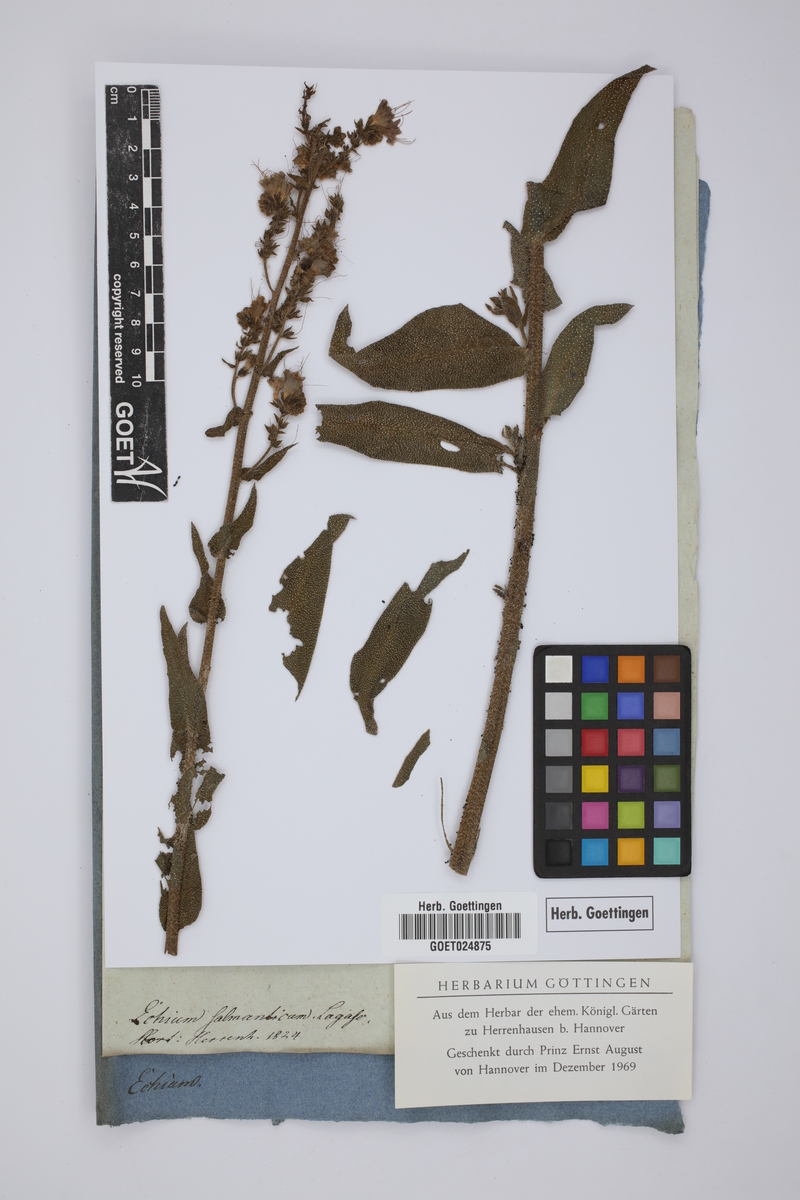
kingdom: Plantae
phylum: Tracheophyta
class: Magnoliopsida
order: Boraginales
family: Boraginaceae
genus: Echium
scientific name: Echium salmanticum
